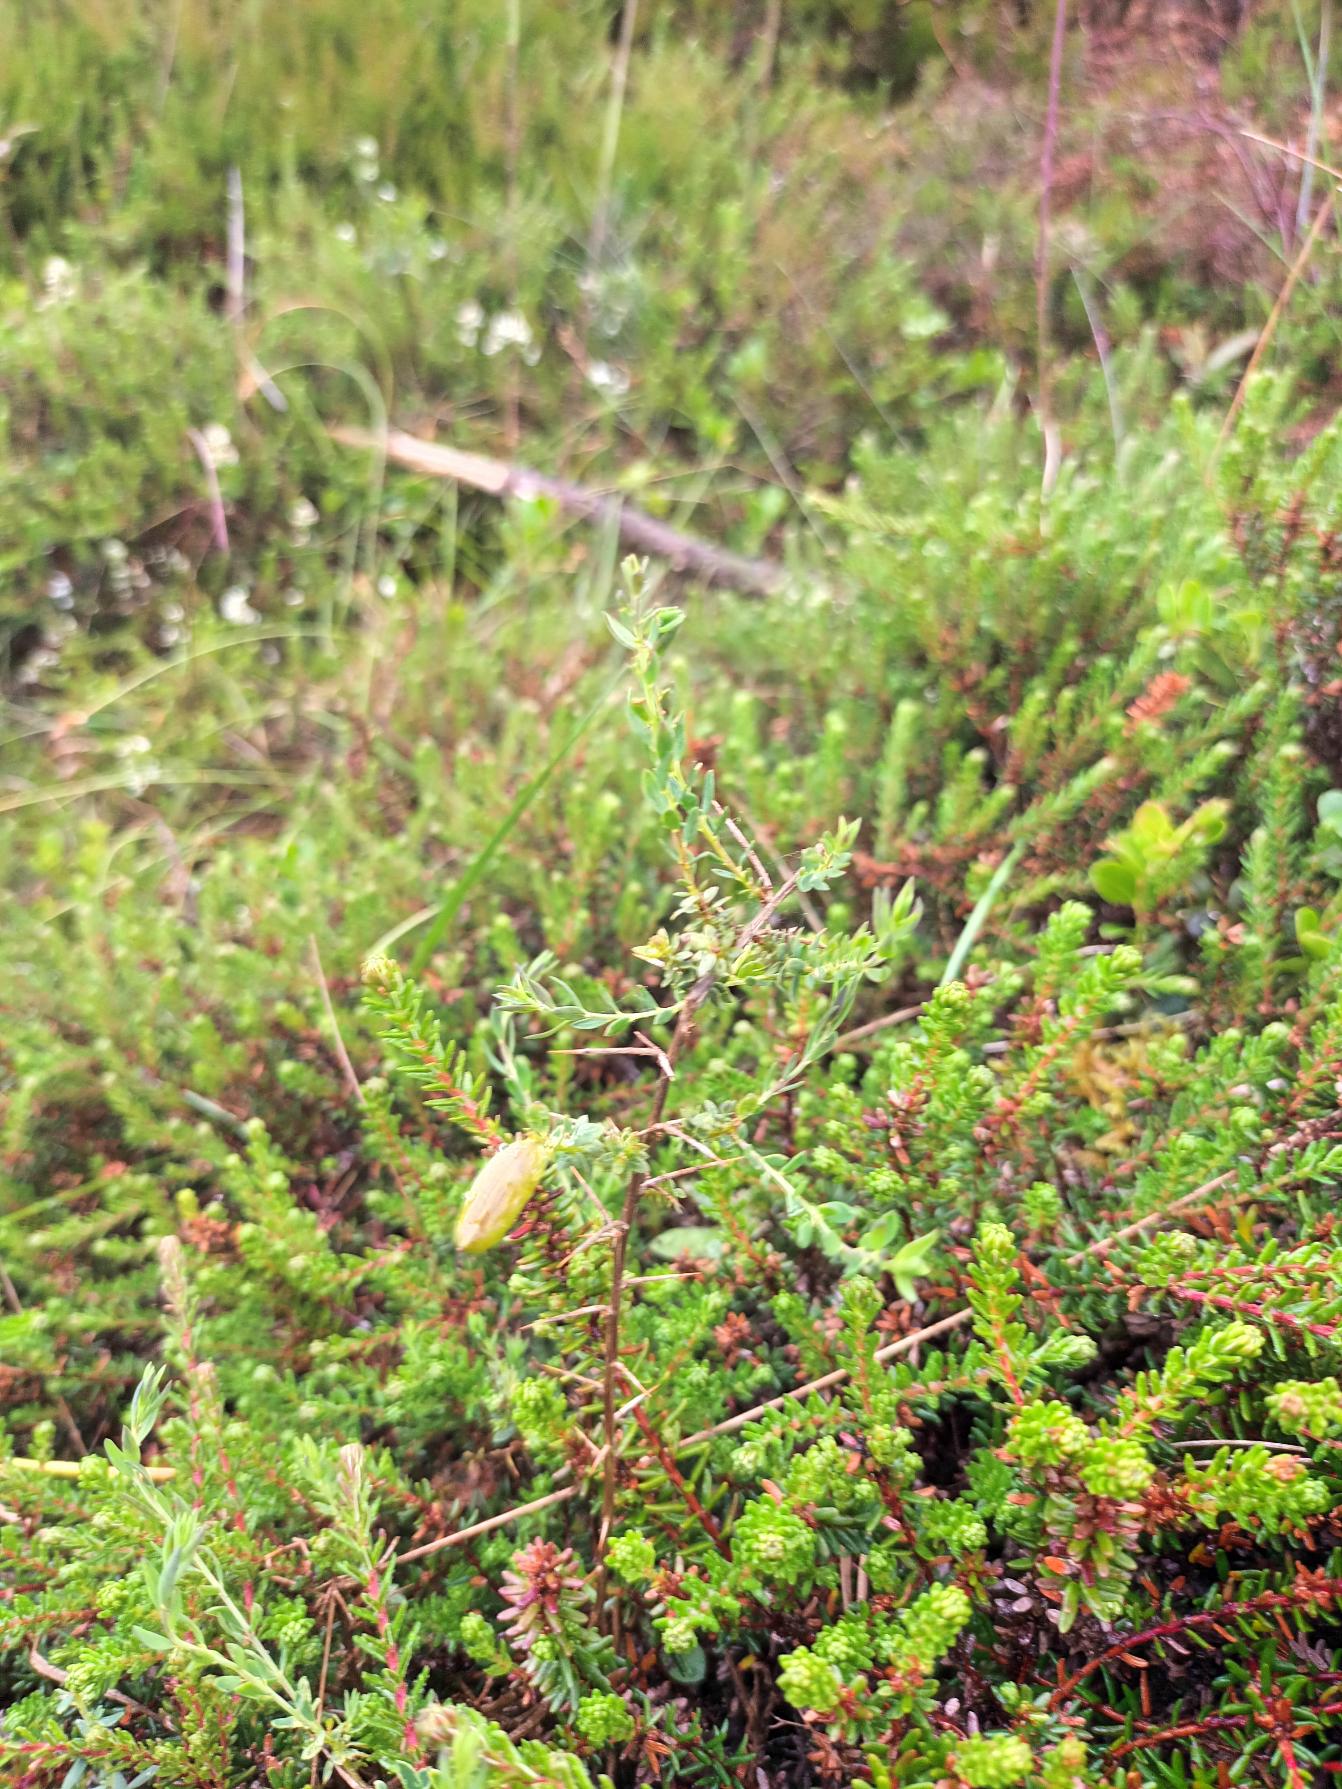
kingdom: Plantae
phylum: Tracheophyta
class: Magnoliopsida
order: Fabales
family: Fabaceae
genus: Genista
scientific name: Genista anglica
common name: Engelsk visse
